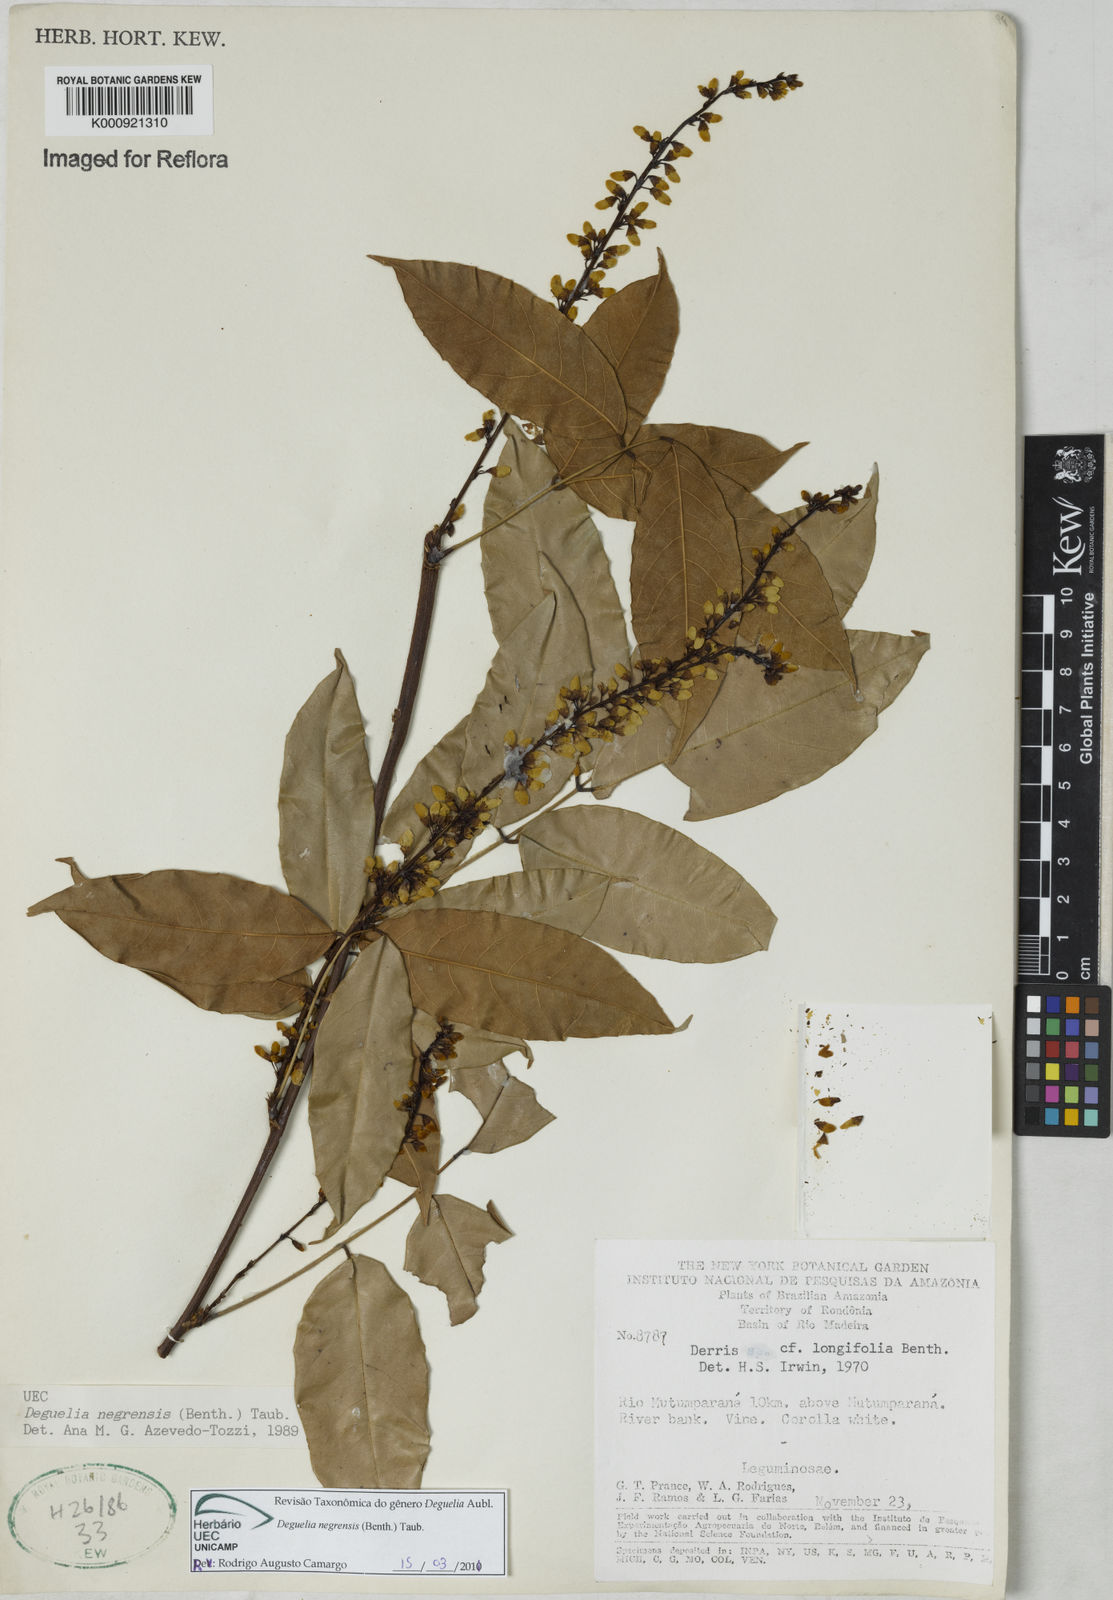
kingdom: Plantae
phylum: Tracheophyta
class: Magnoliopsida
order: Fabales
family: Fabaceae
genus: Deguelia
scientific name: Deguelia negrensis
